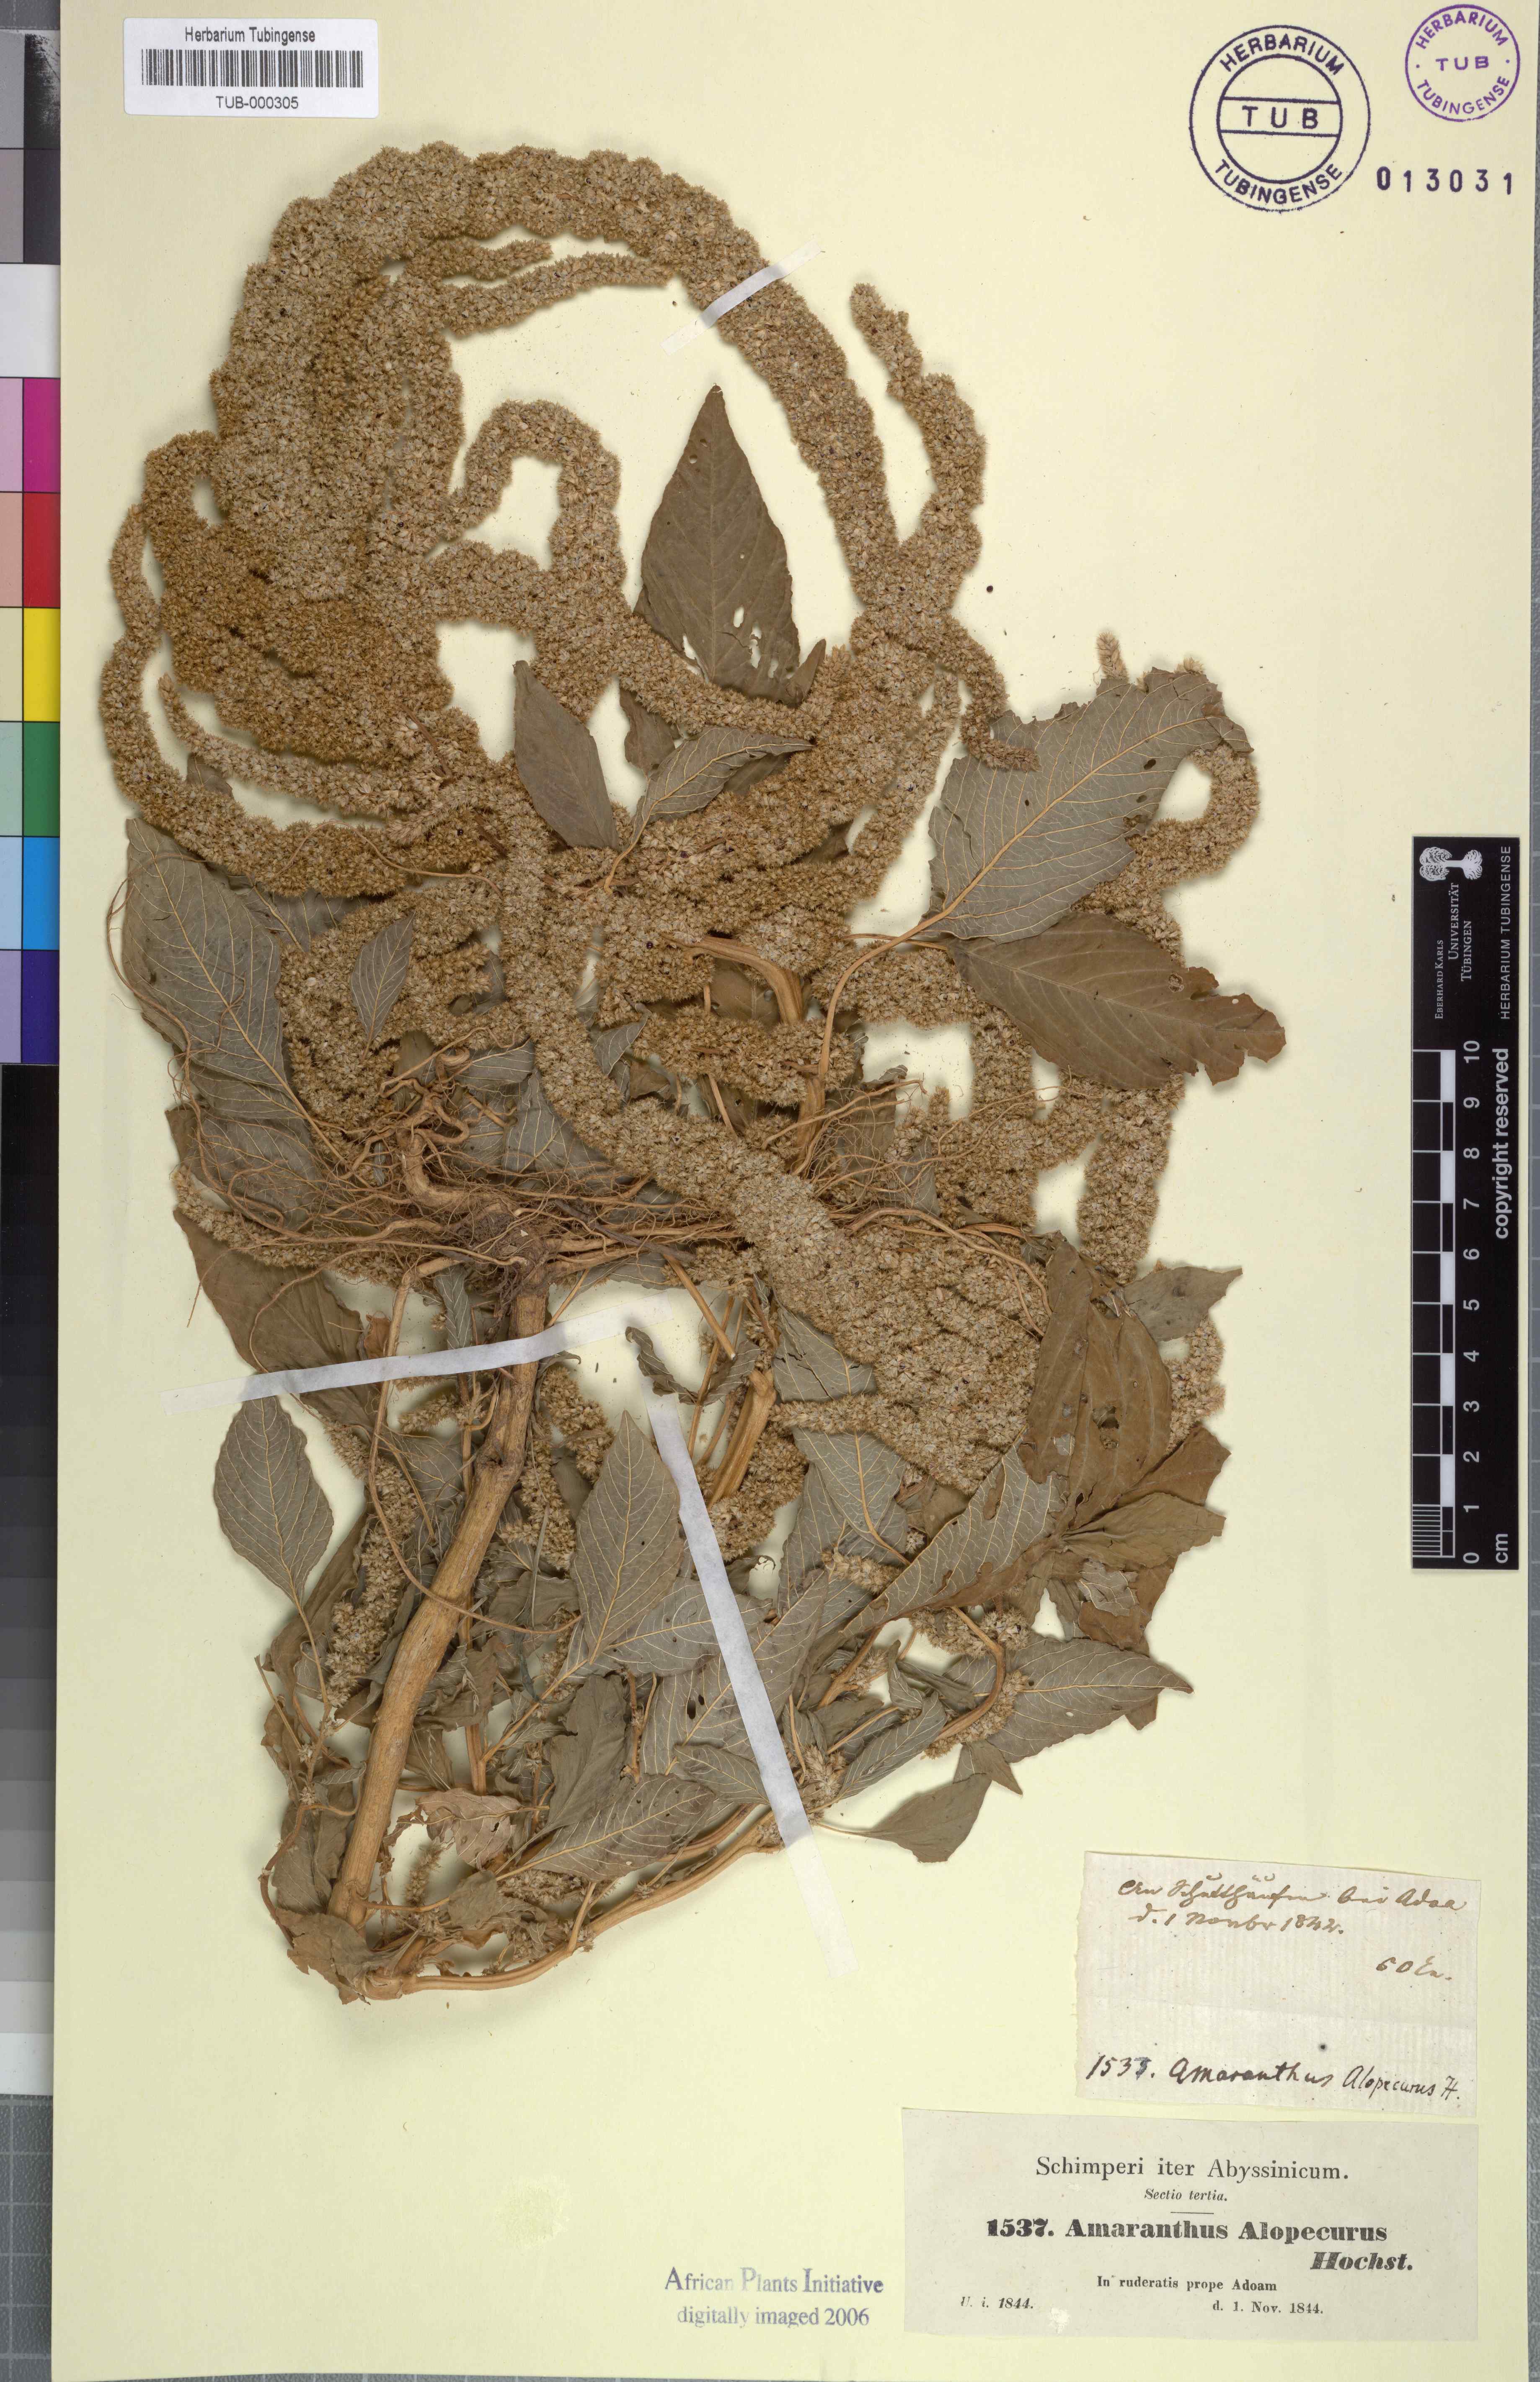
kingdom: Plantae
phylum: Tracheophyta
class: Magnoliopsida
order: Caryophyllales
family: Amaranthaceae
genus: Amaranthus
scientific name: Amaranthus caudatus
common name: Love-lies-bleeding
